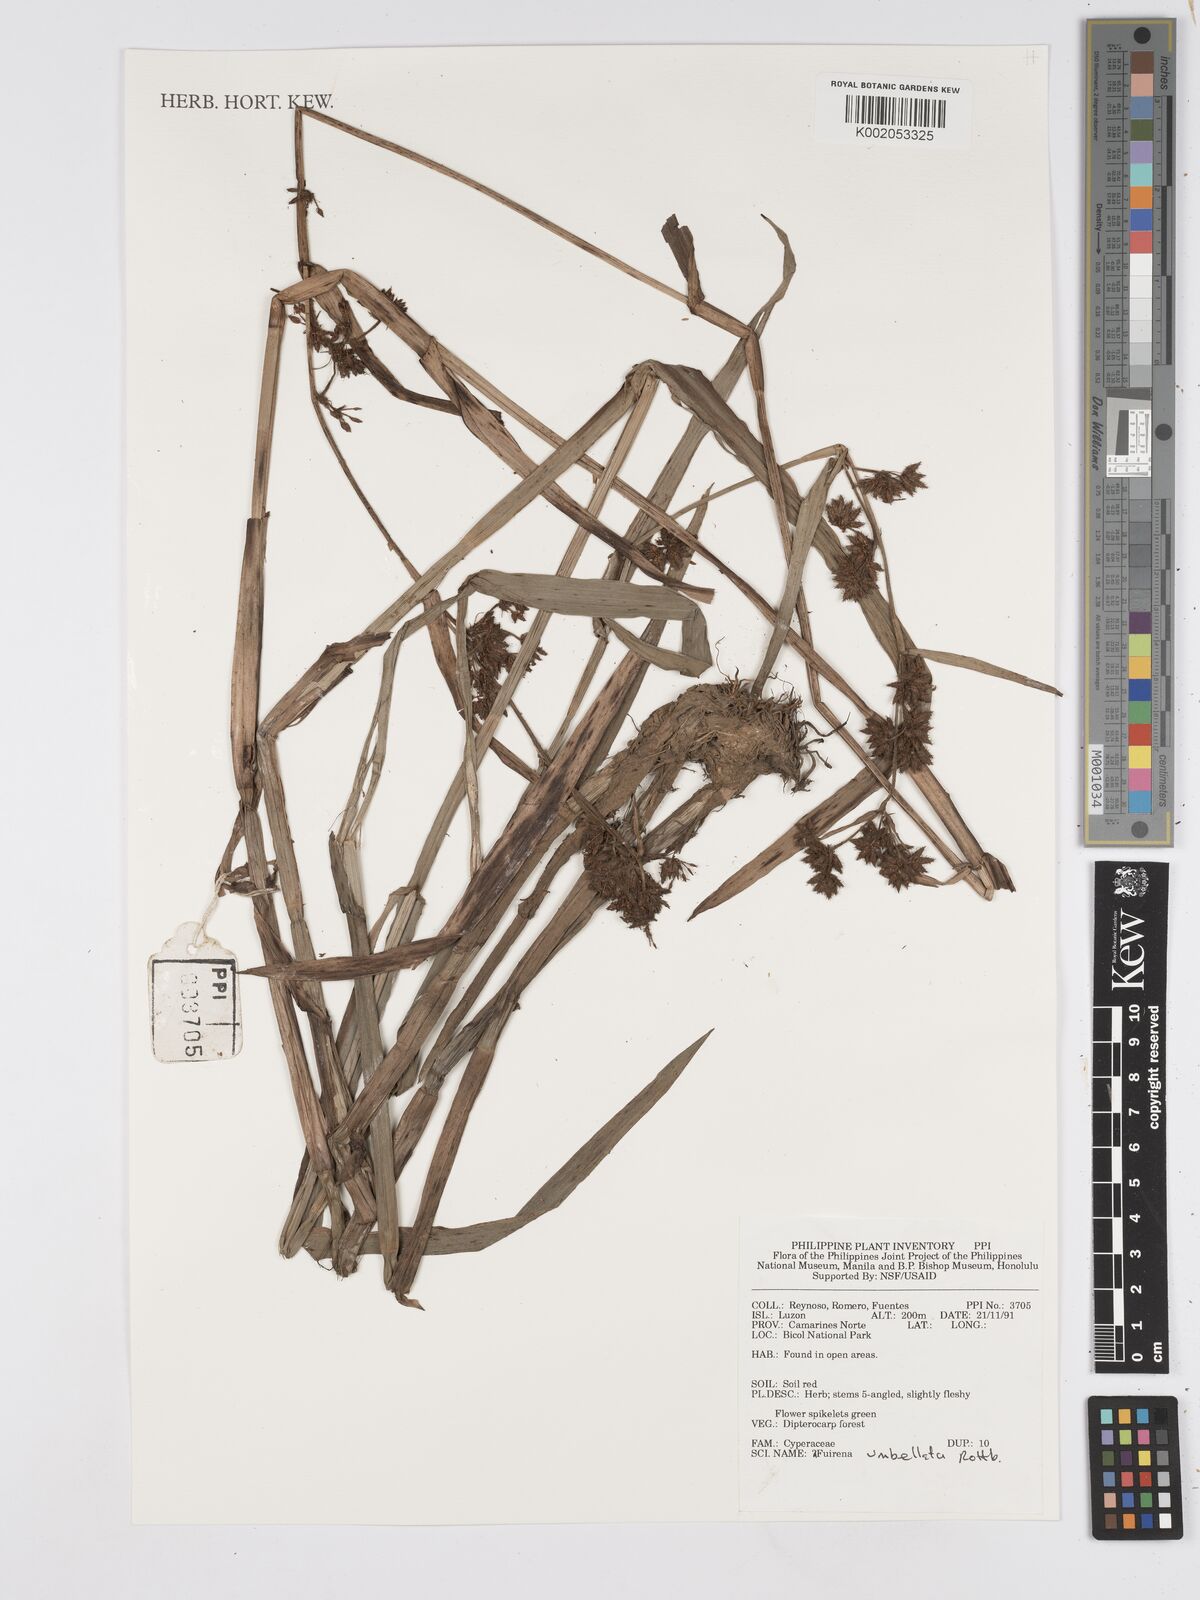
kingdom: Plantae
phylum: Tracheophyta
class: Liliopsida
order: Poales
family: Cyperaceae
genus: Fuirena
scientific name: Fuirena umbellata
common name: Yefen
